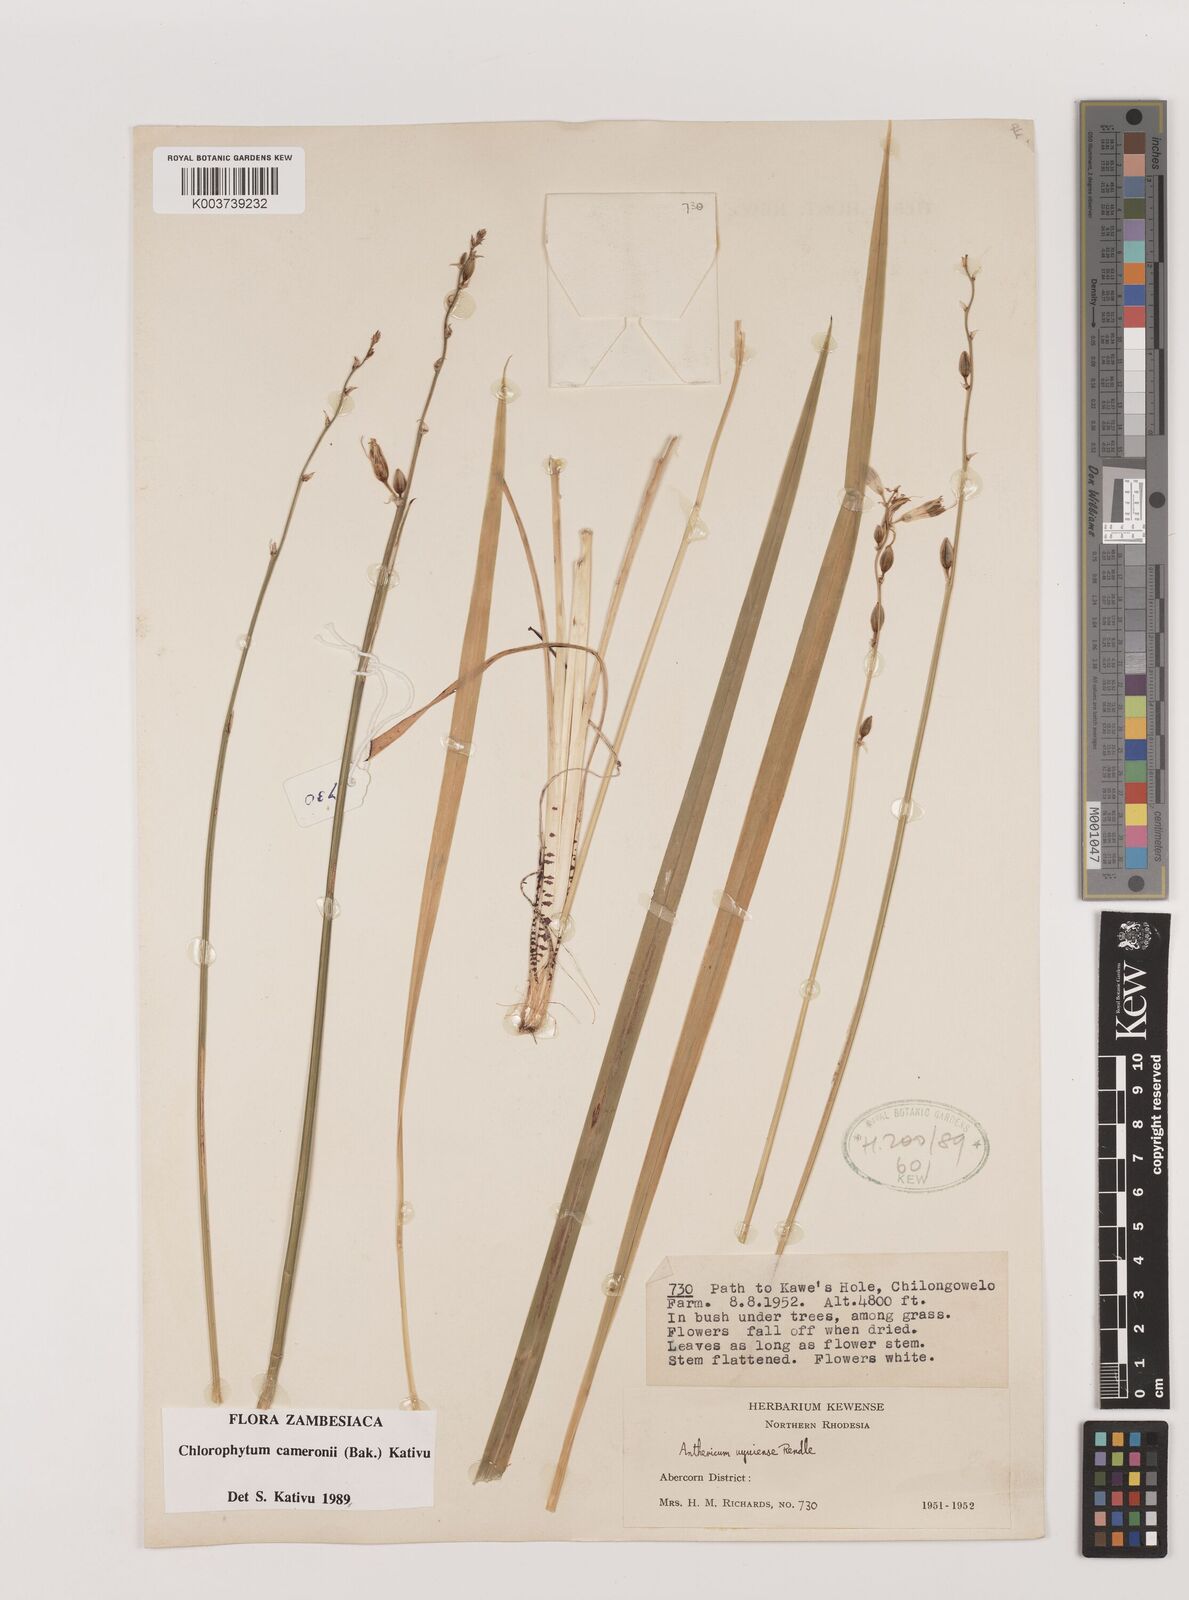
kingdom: Plantae
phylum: Tracheophyta
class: Liliopsida
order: Asparagales
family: Asparagaceae
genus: Chlorophytum
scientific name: Chlorophytum cameronii
